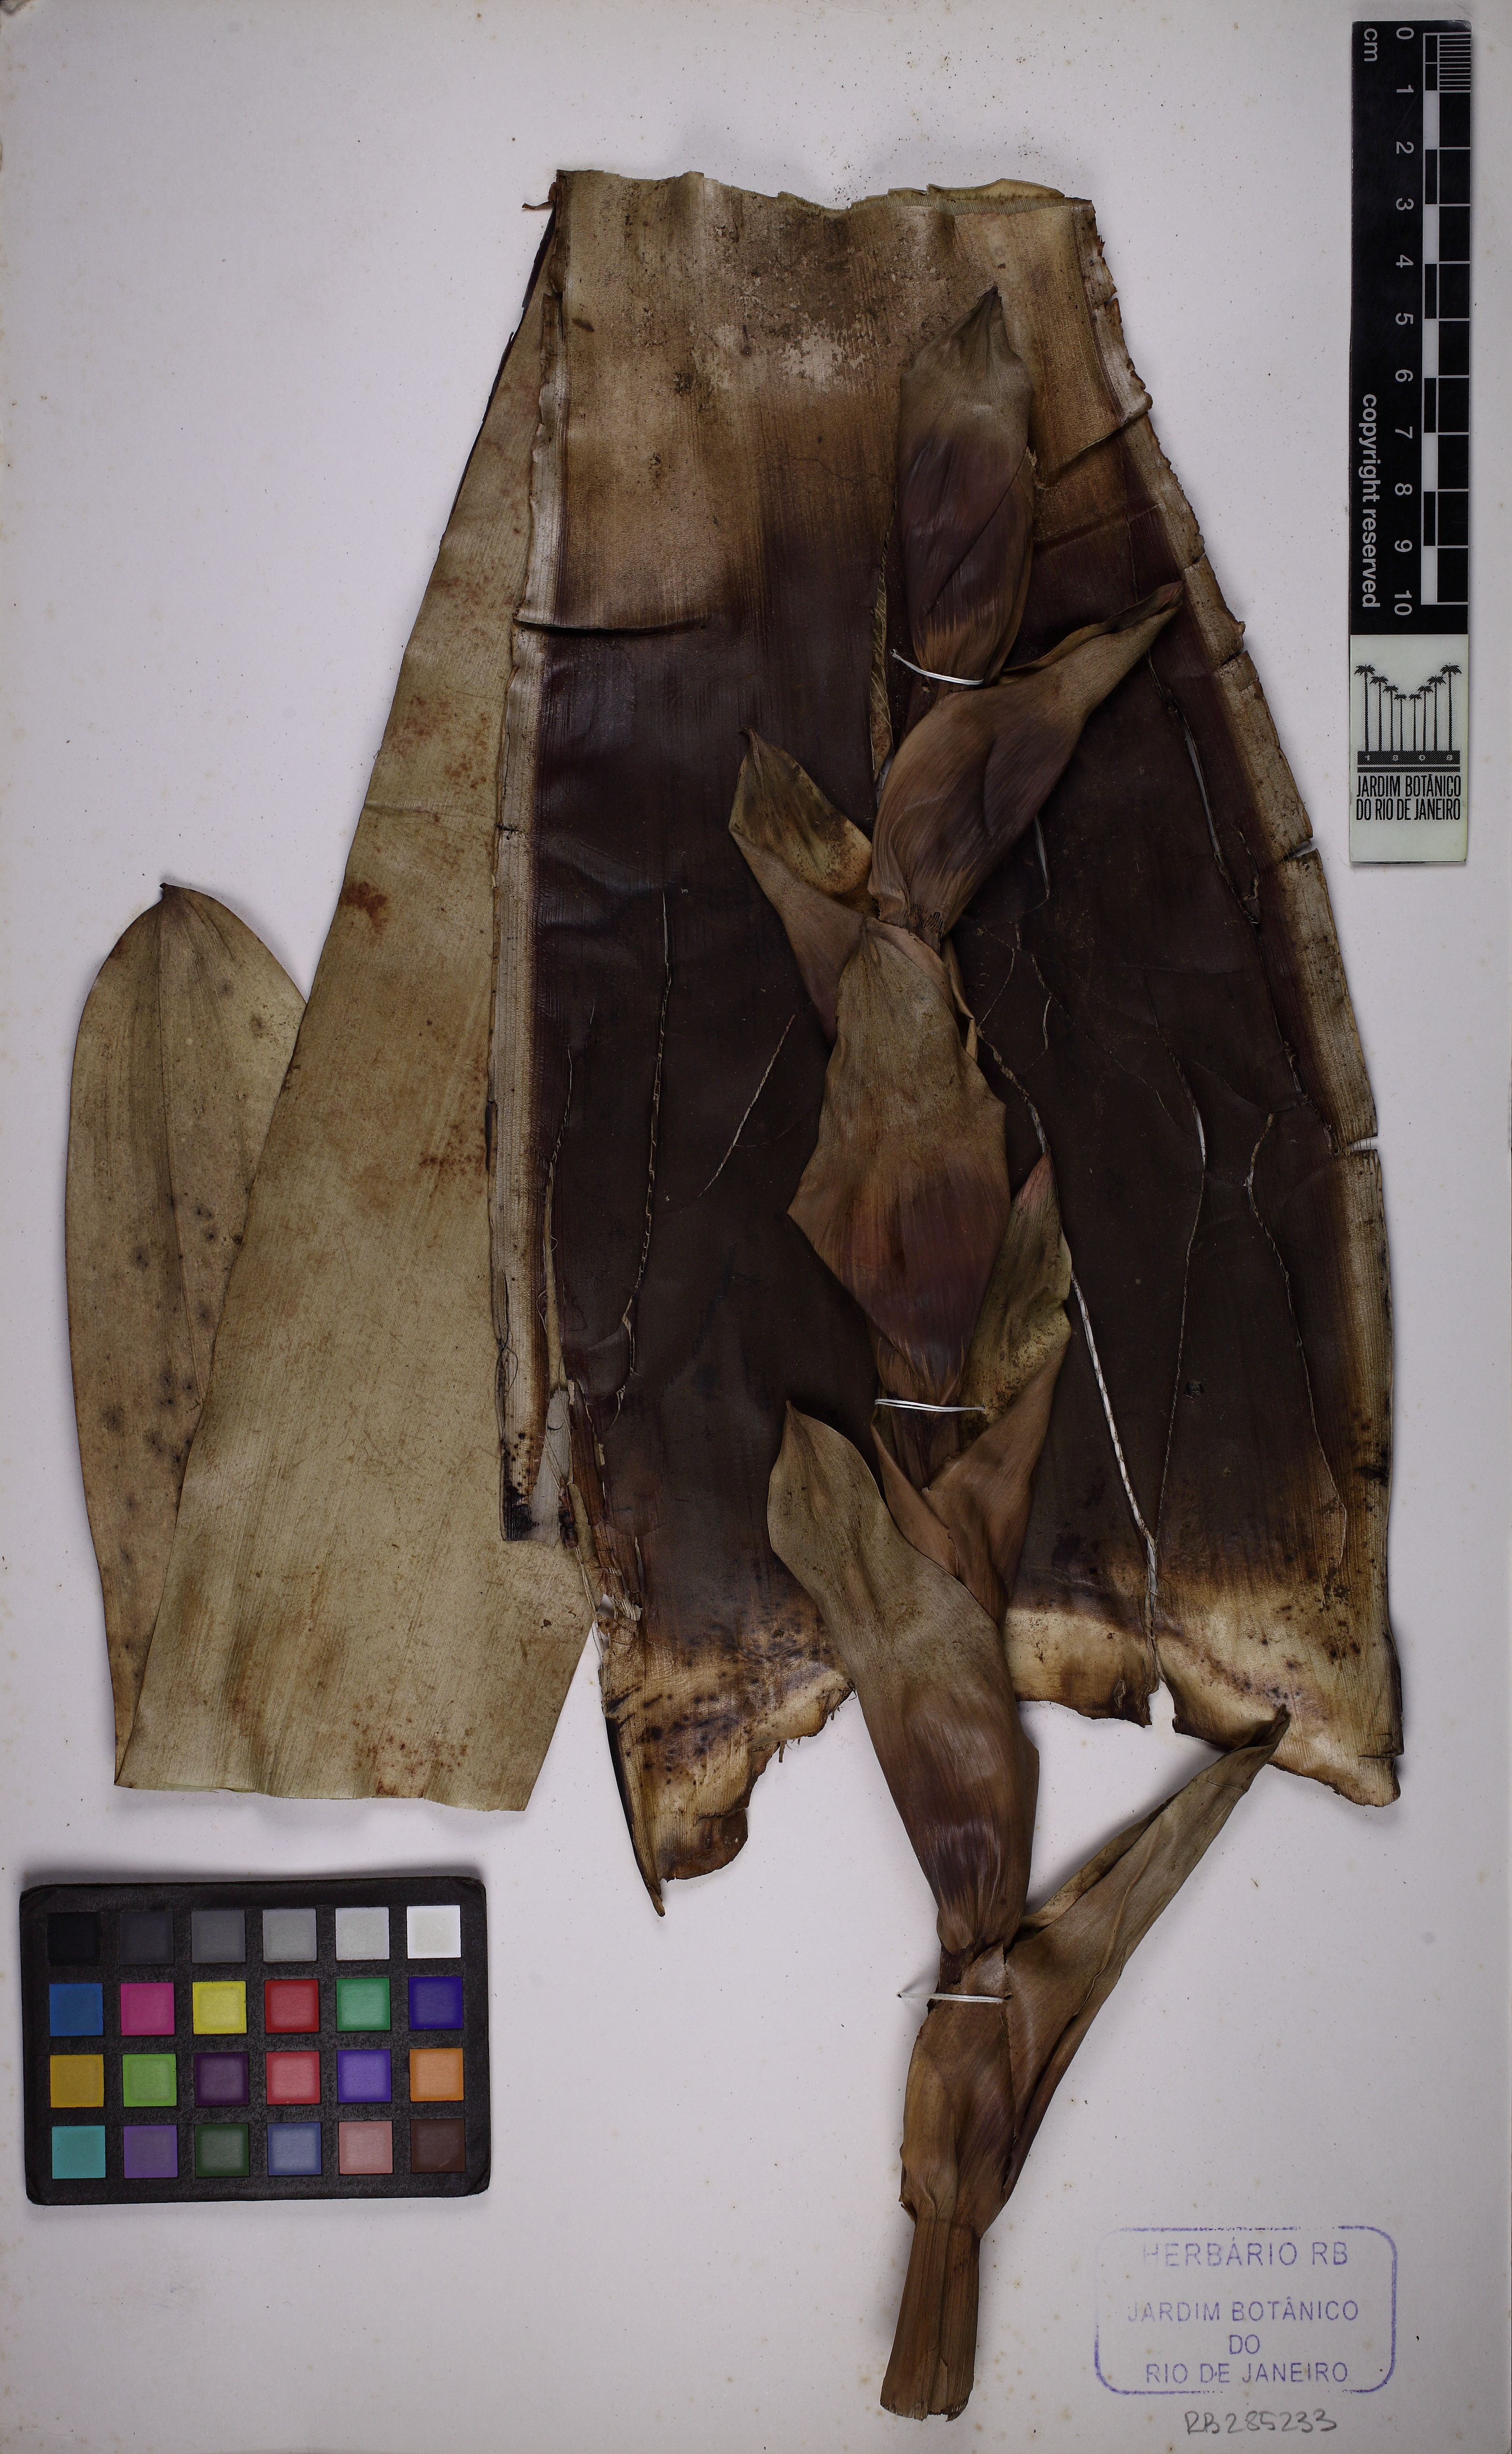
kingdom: Plantae
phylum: Tracheophyta
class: Liliopsida
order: Poales
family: Bromeliaceae
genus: Vriesea
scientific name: Vriesea itatiaiae
